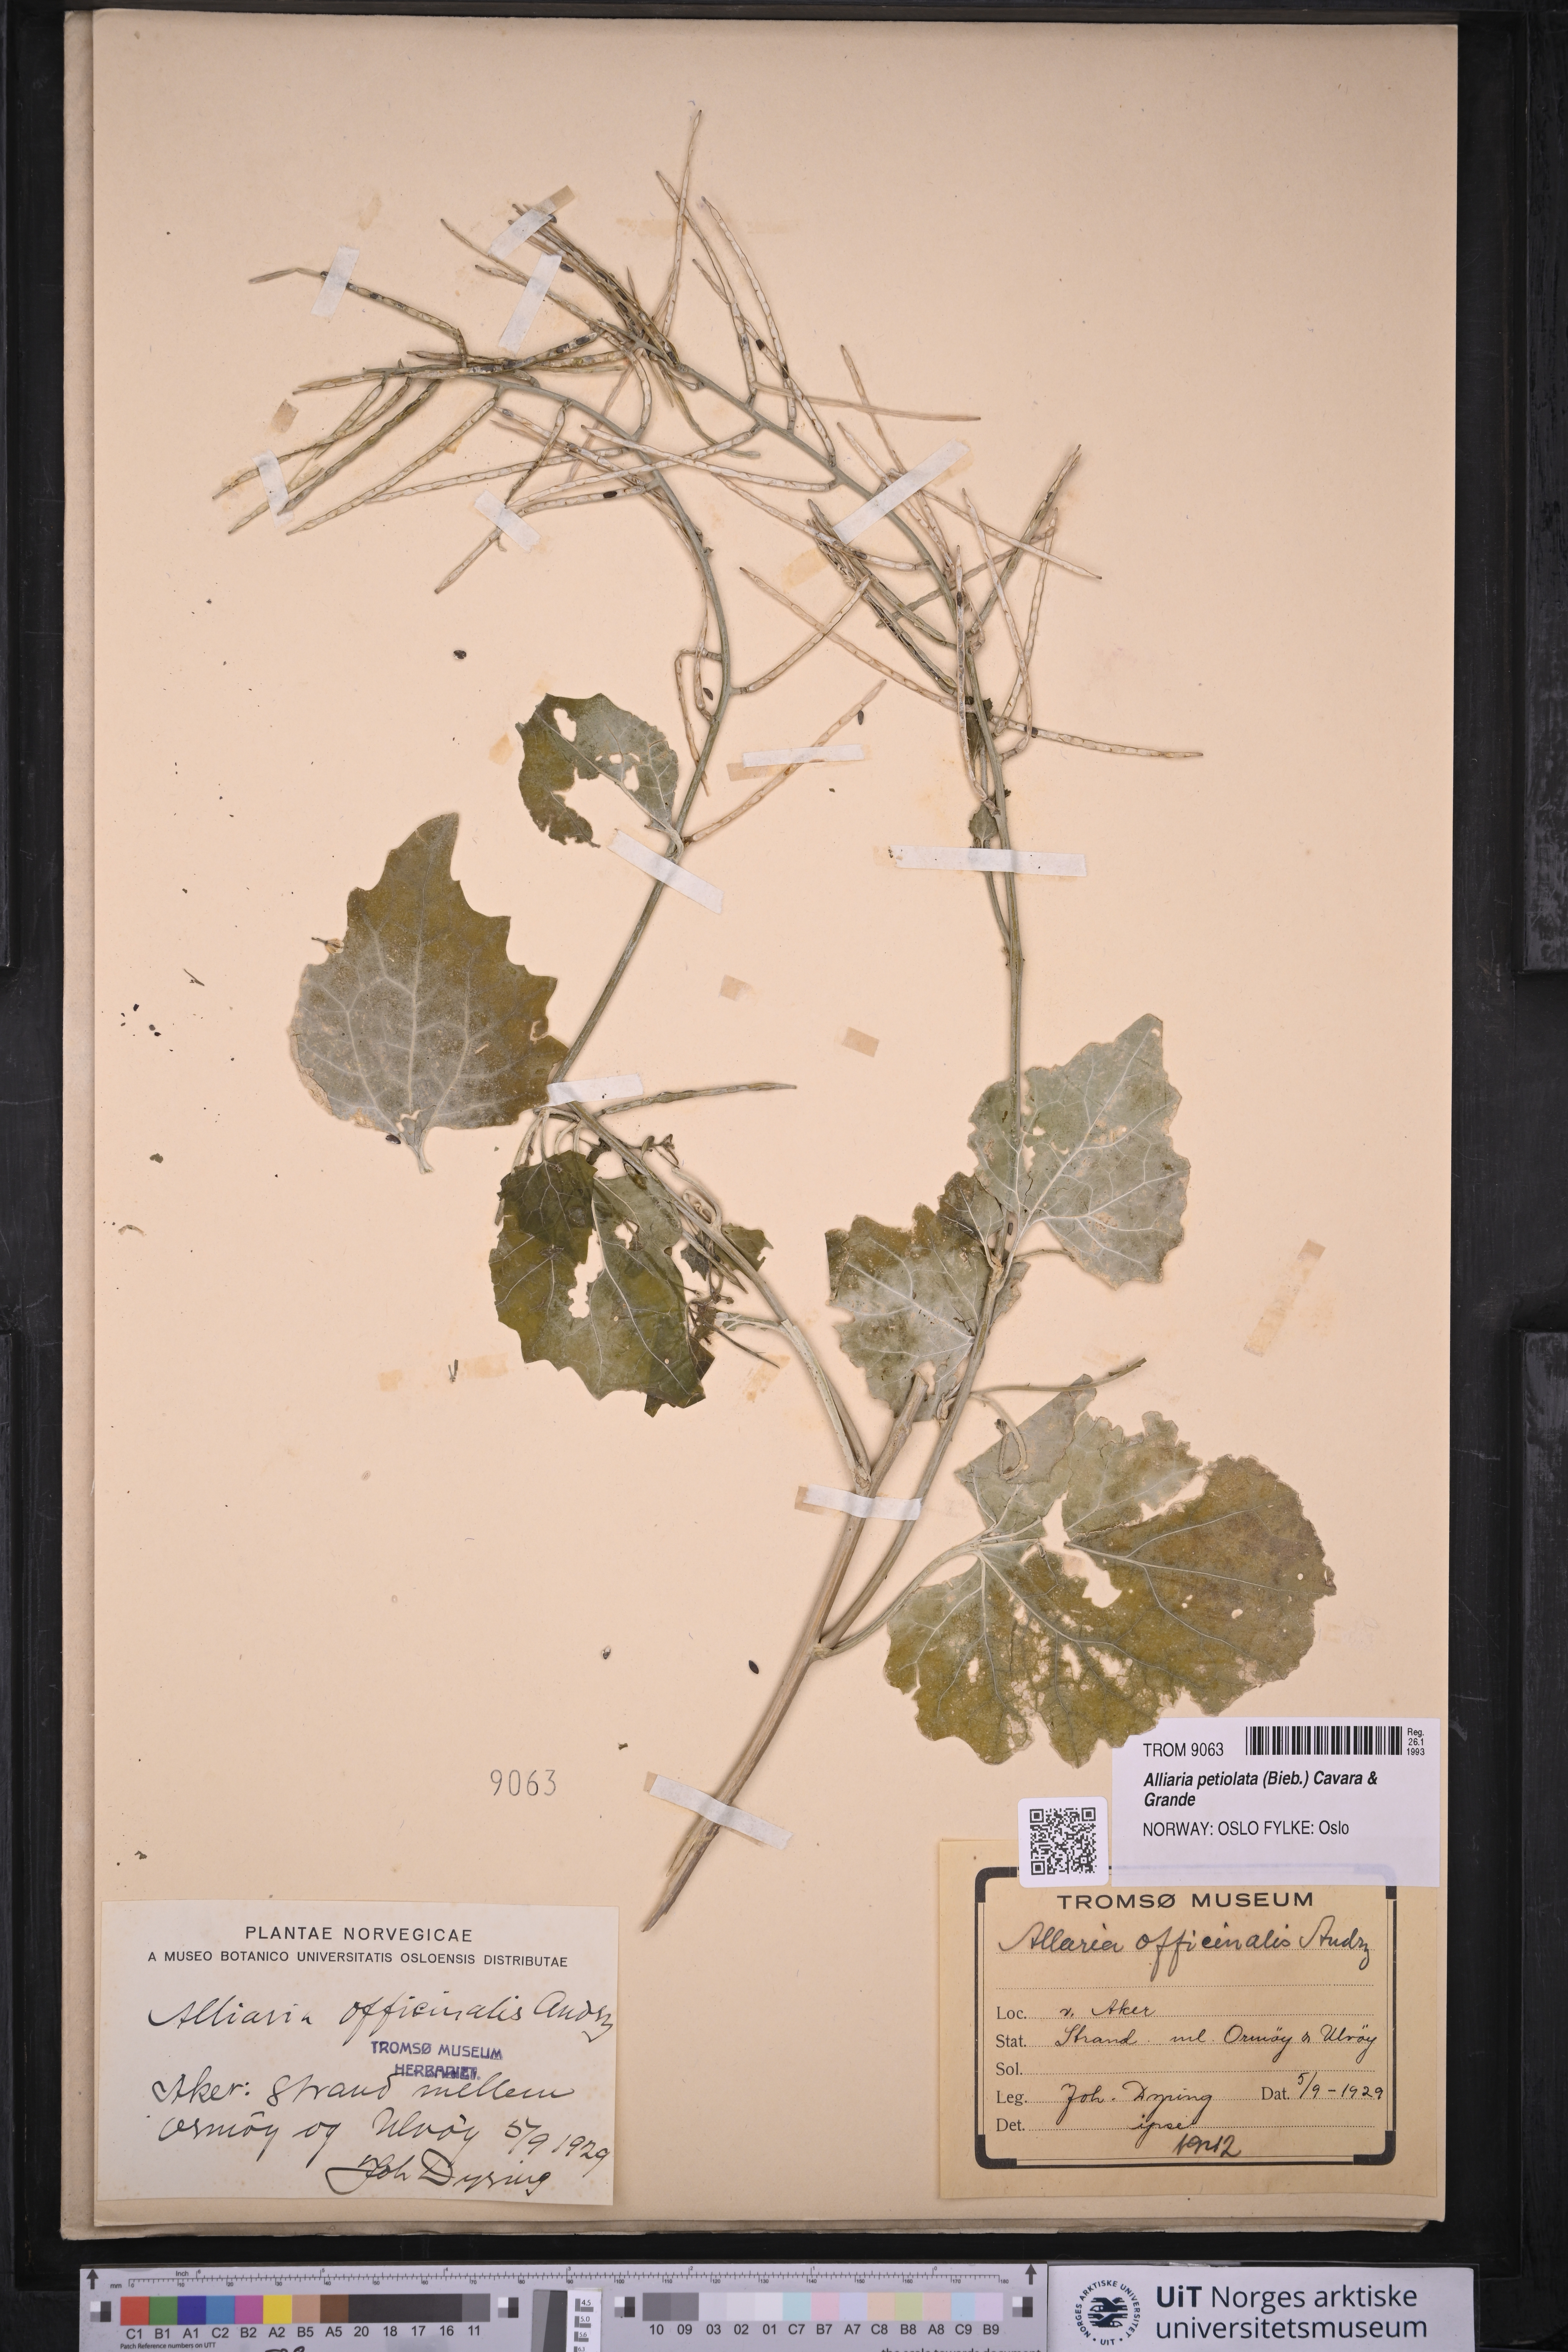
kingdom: Plantae
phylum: Tracheophyta
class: Magnoliopsida
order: Brassicales
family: Brassicaceae
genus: Alliaria
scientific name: Alliaria petiolata
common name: Garlic mustard
